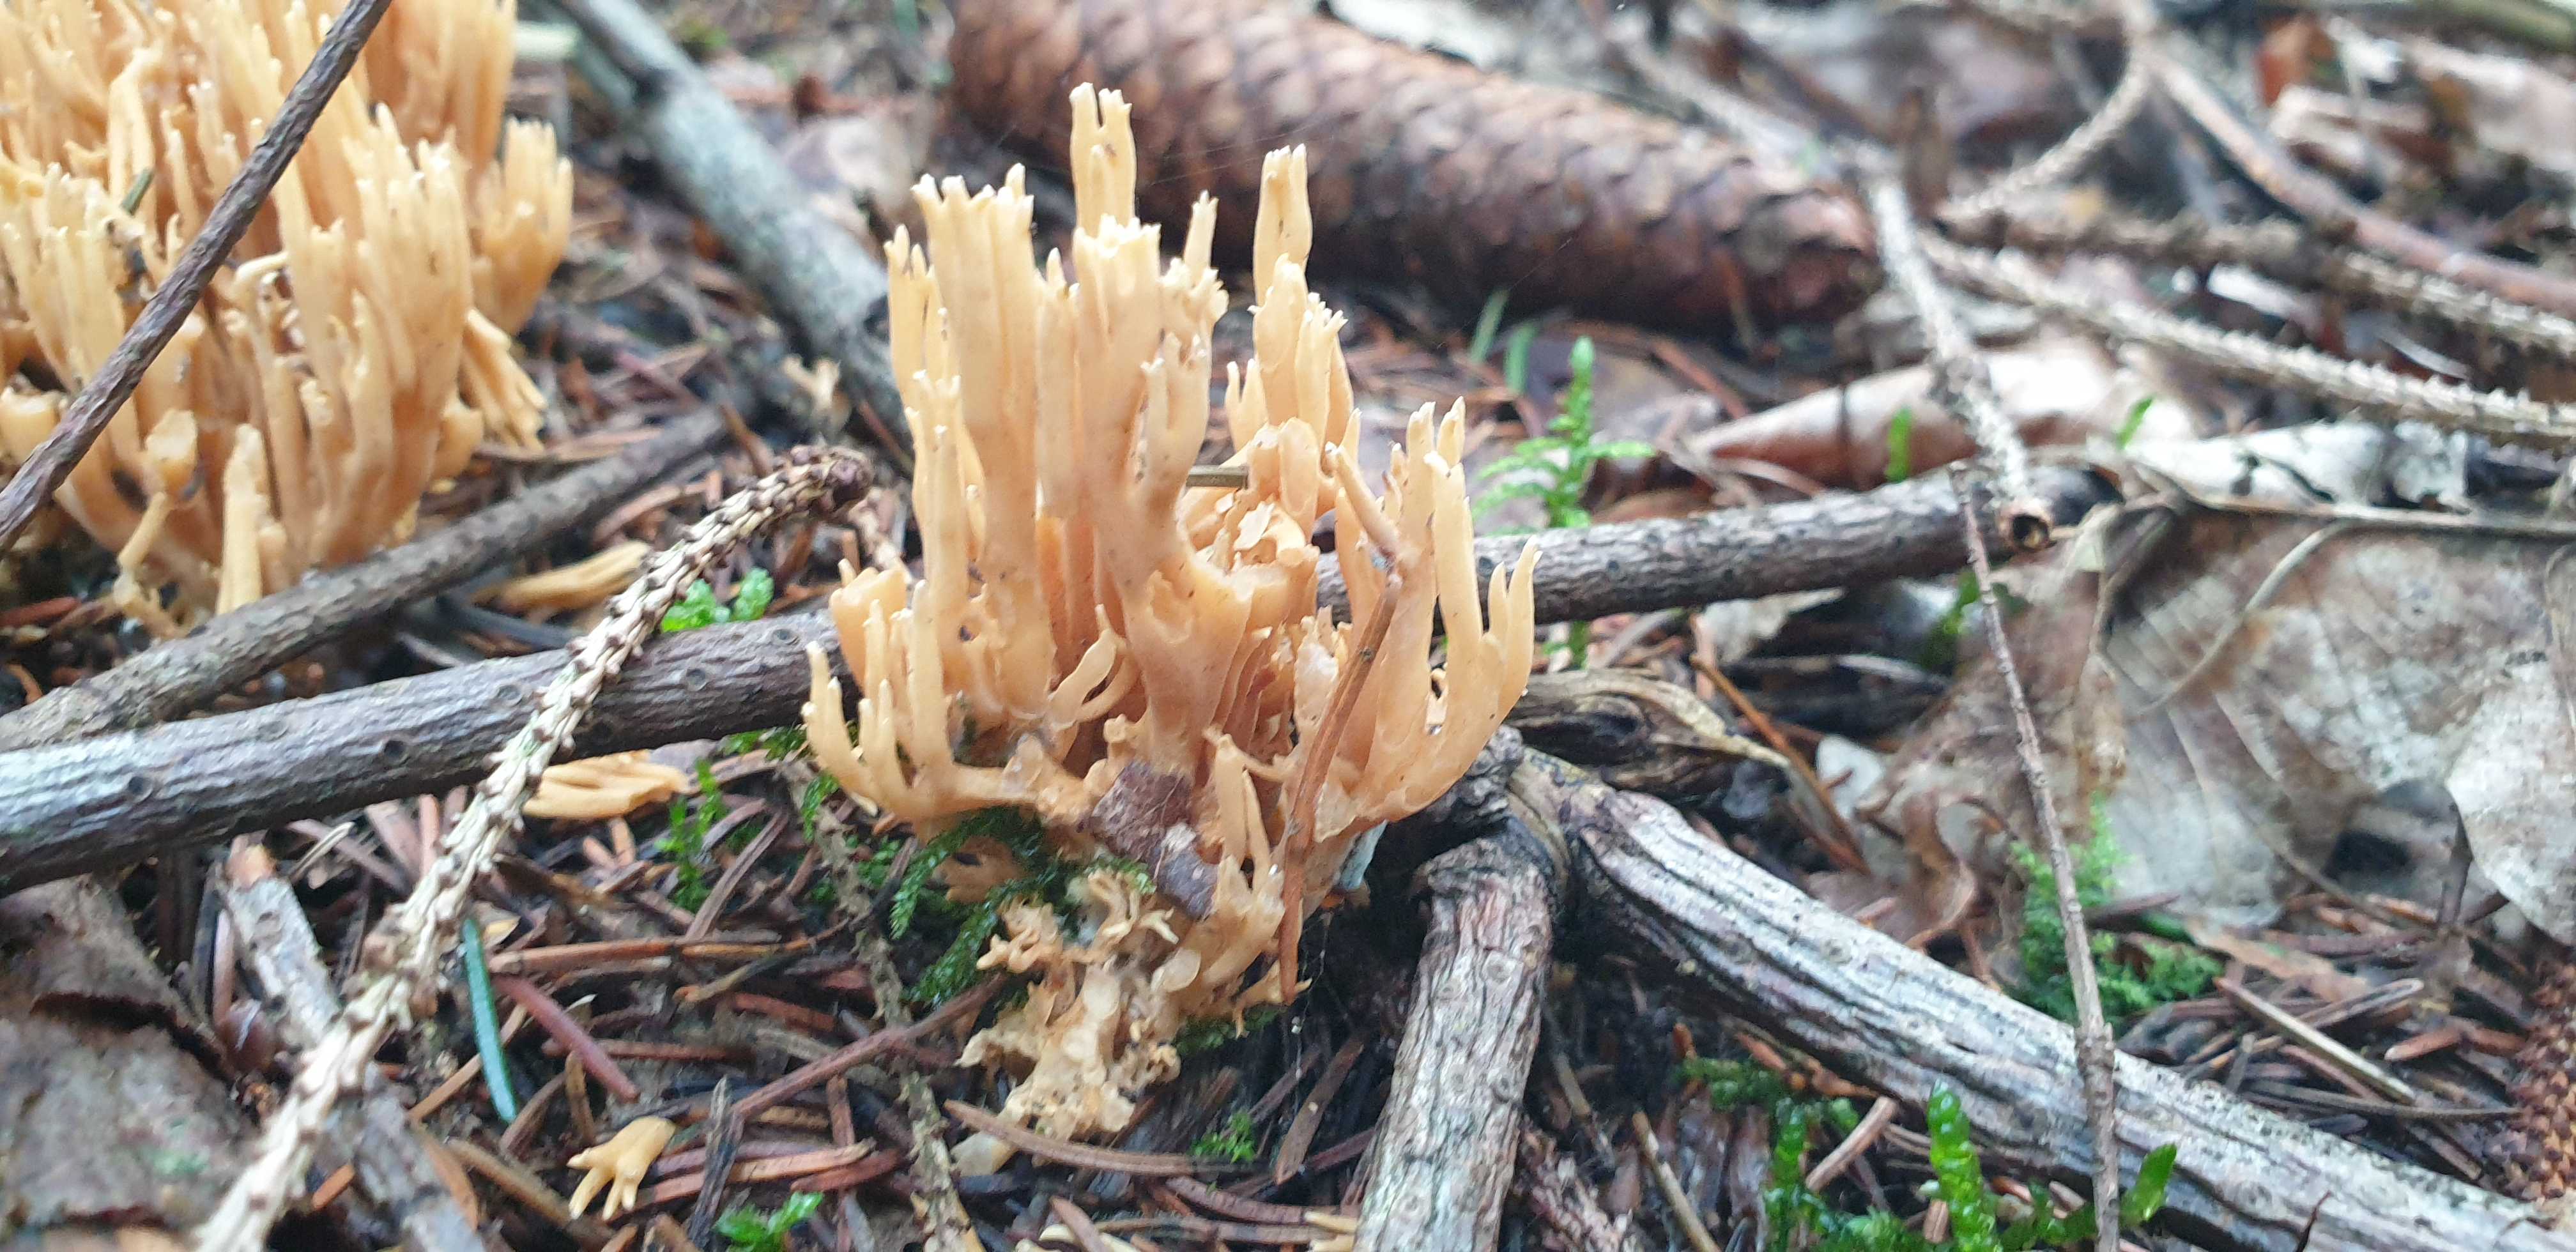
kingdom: Fungi
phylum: Basidiomycota
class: Agaricomycetes
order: Gomphales
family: Gomphaceae
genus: Phaeoclavulina
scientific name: Phaeoclavulina eumorpha
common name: gran-koralsvamp
